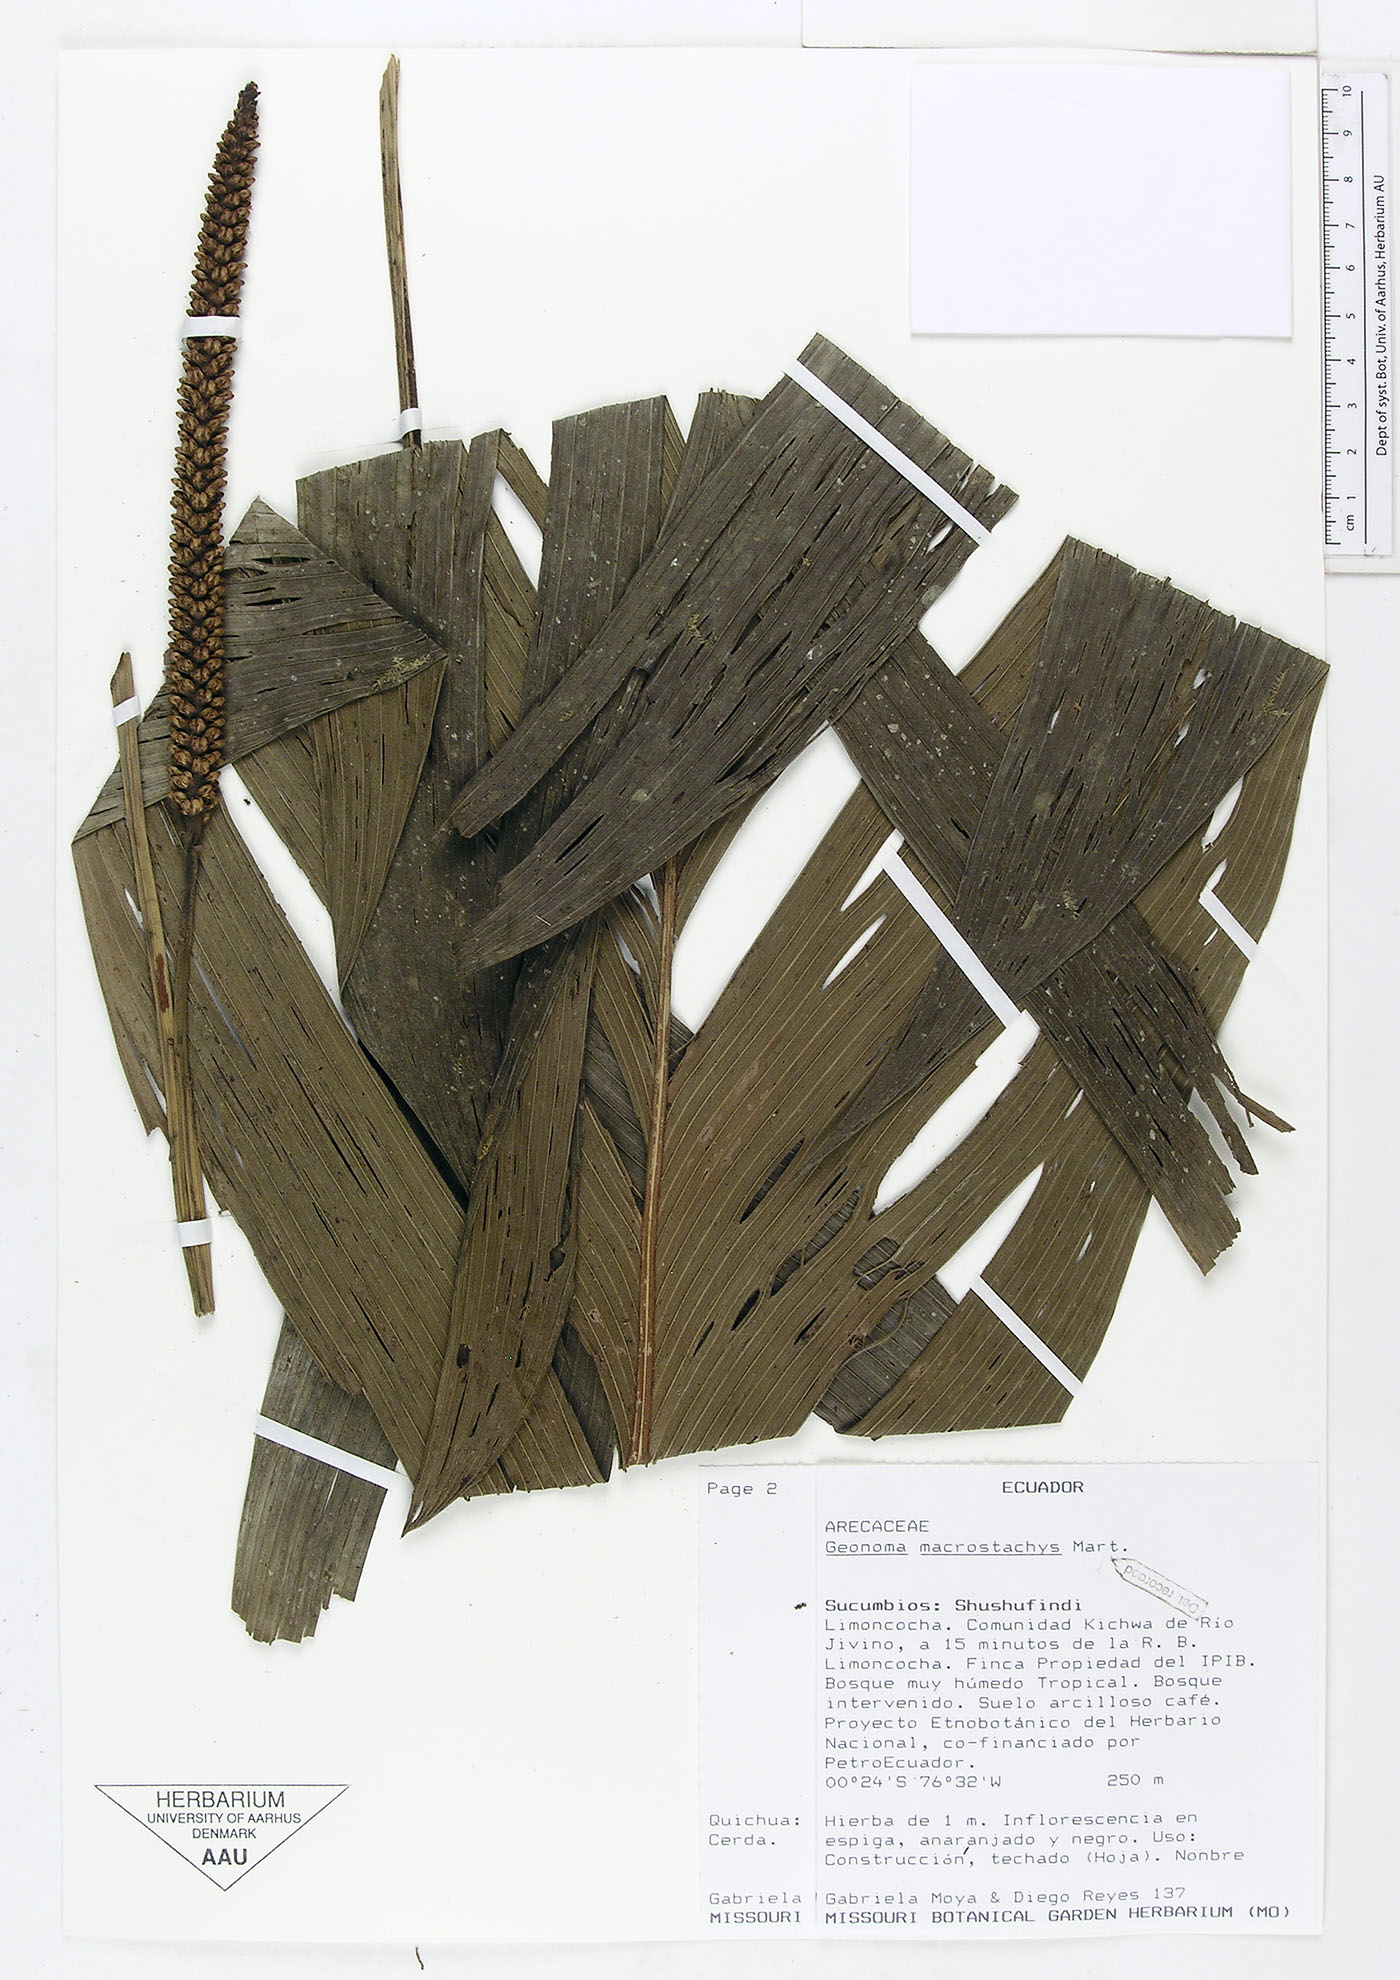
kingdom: Plantae
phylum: Tracheophyta
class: Liliopsida
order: Arecales
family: Arecaceae
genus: Geonoma
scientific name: Geonoma macrostachys
